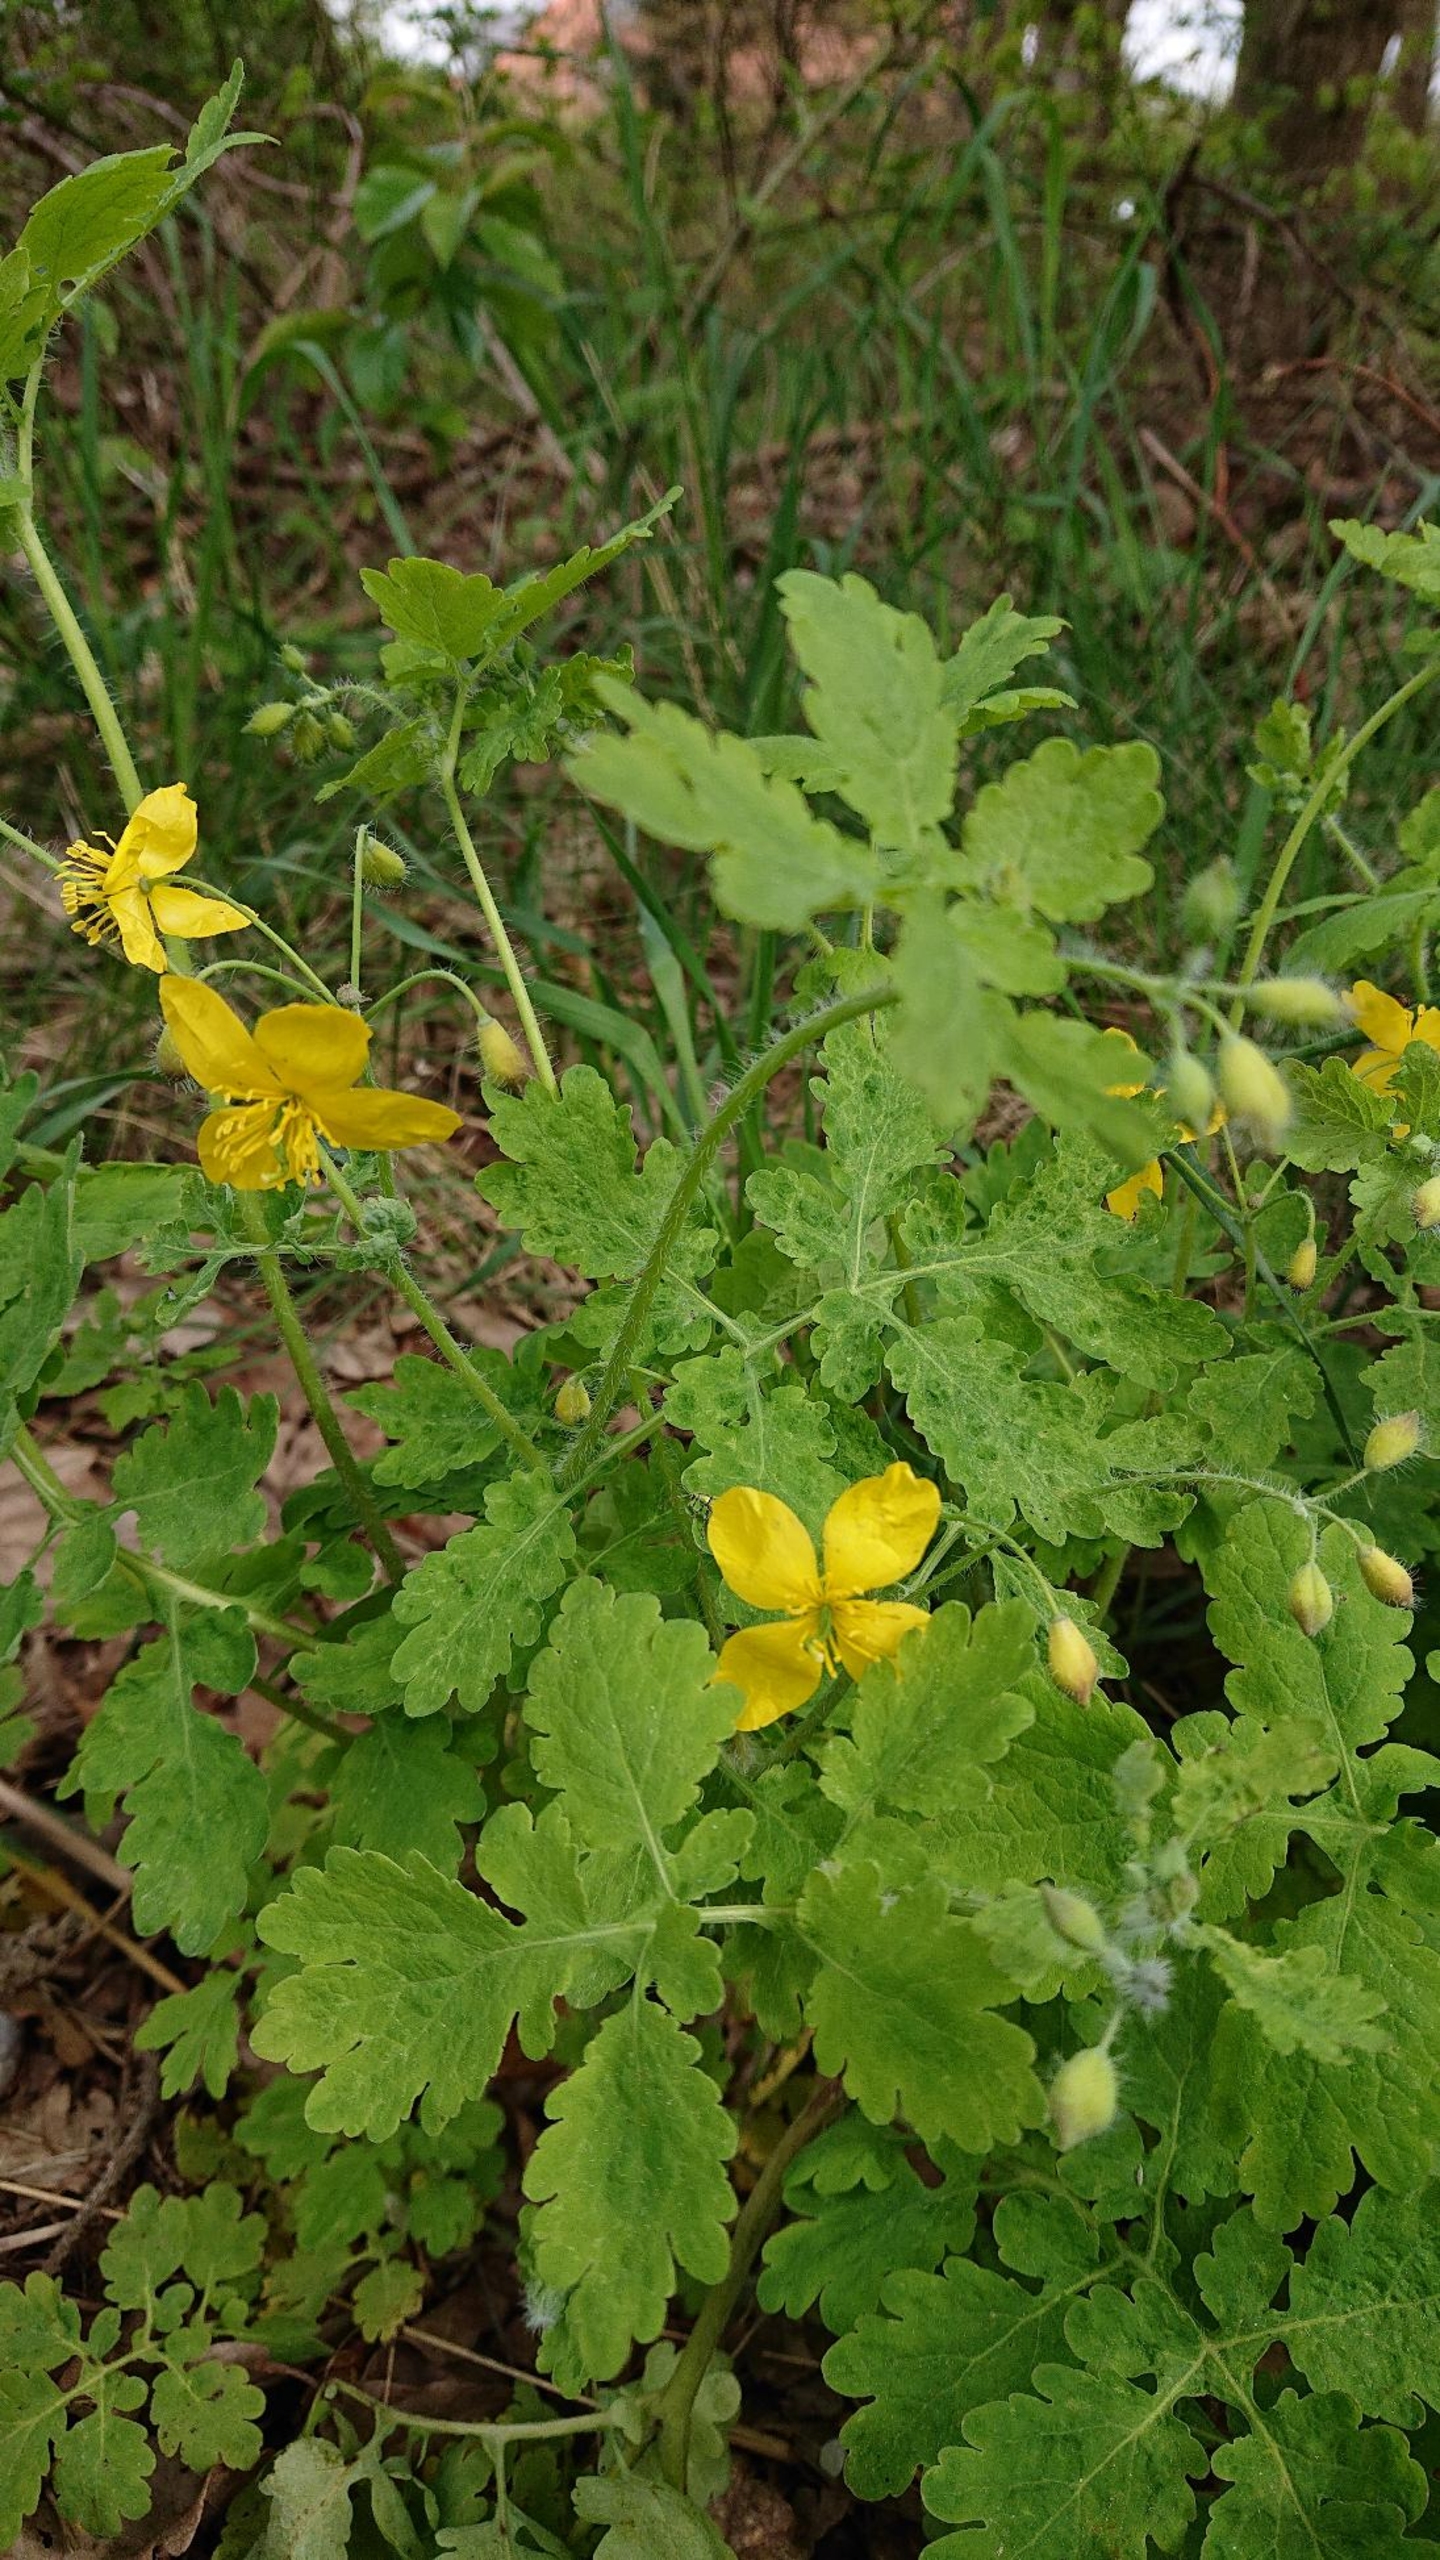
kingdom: Plantae
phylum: Tracheophyta
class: Magnoliopsida
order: Ranunculales
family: Papaveraceae
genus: Chelidonium
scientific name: Chelidonium majus
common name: Svaleurt
